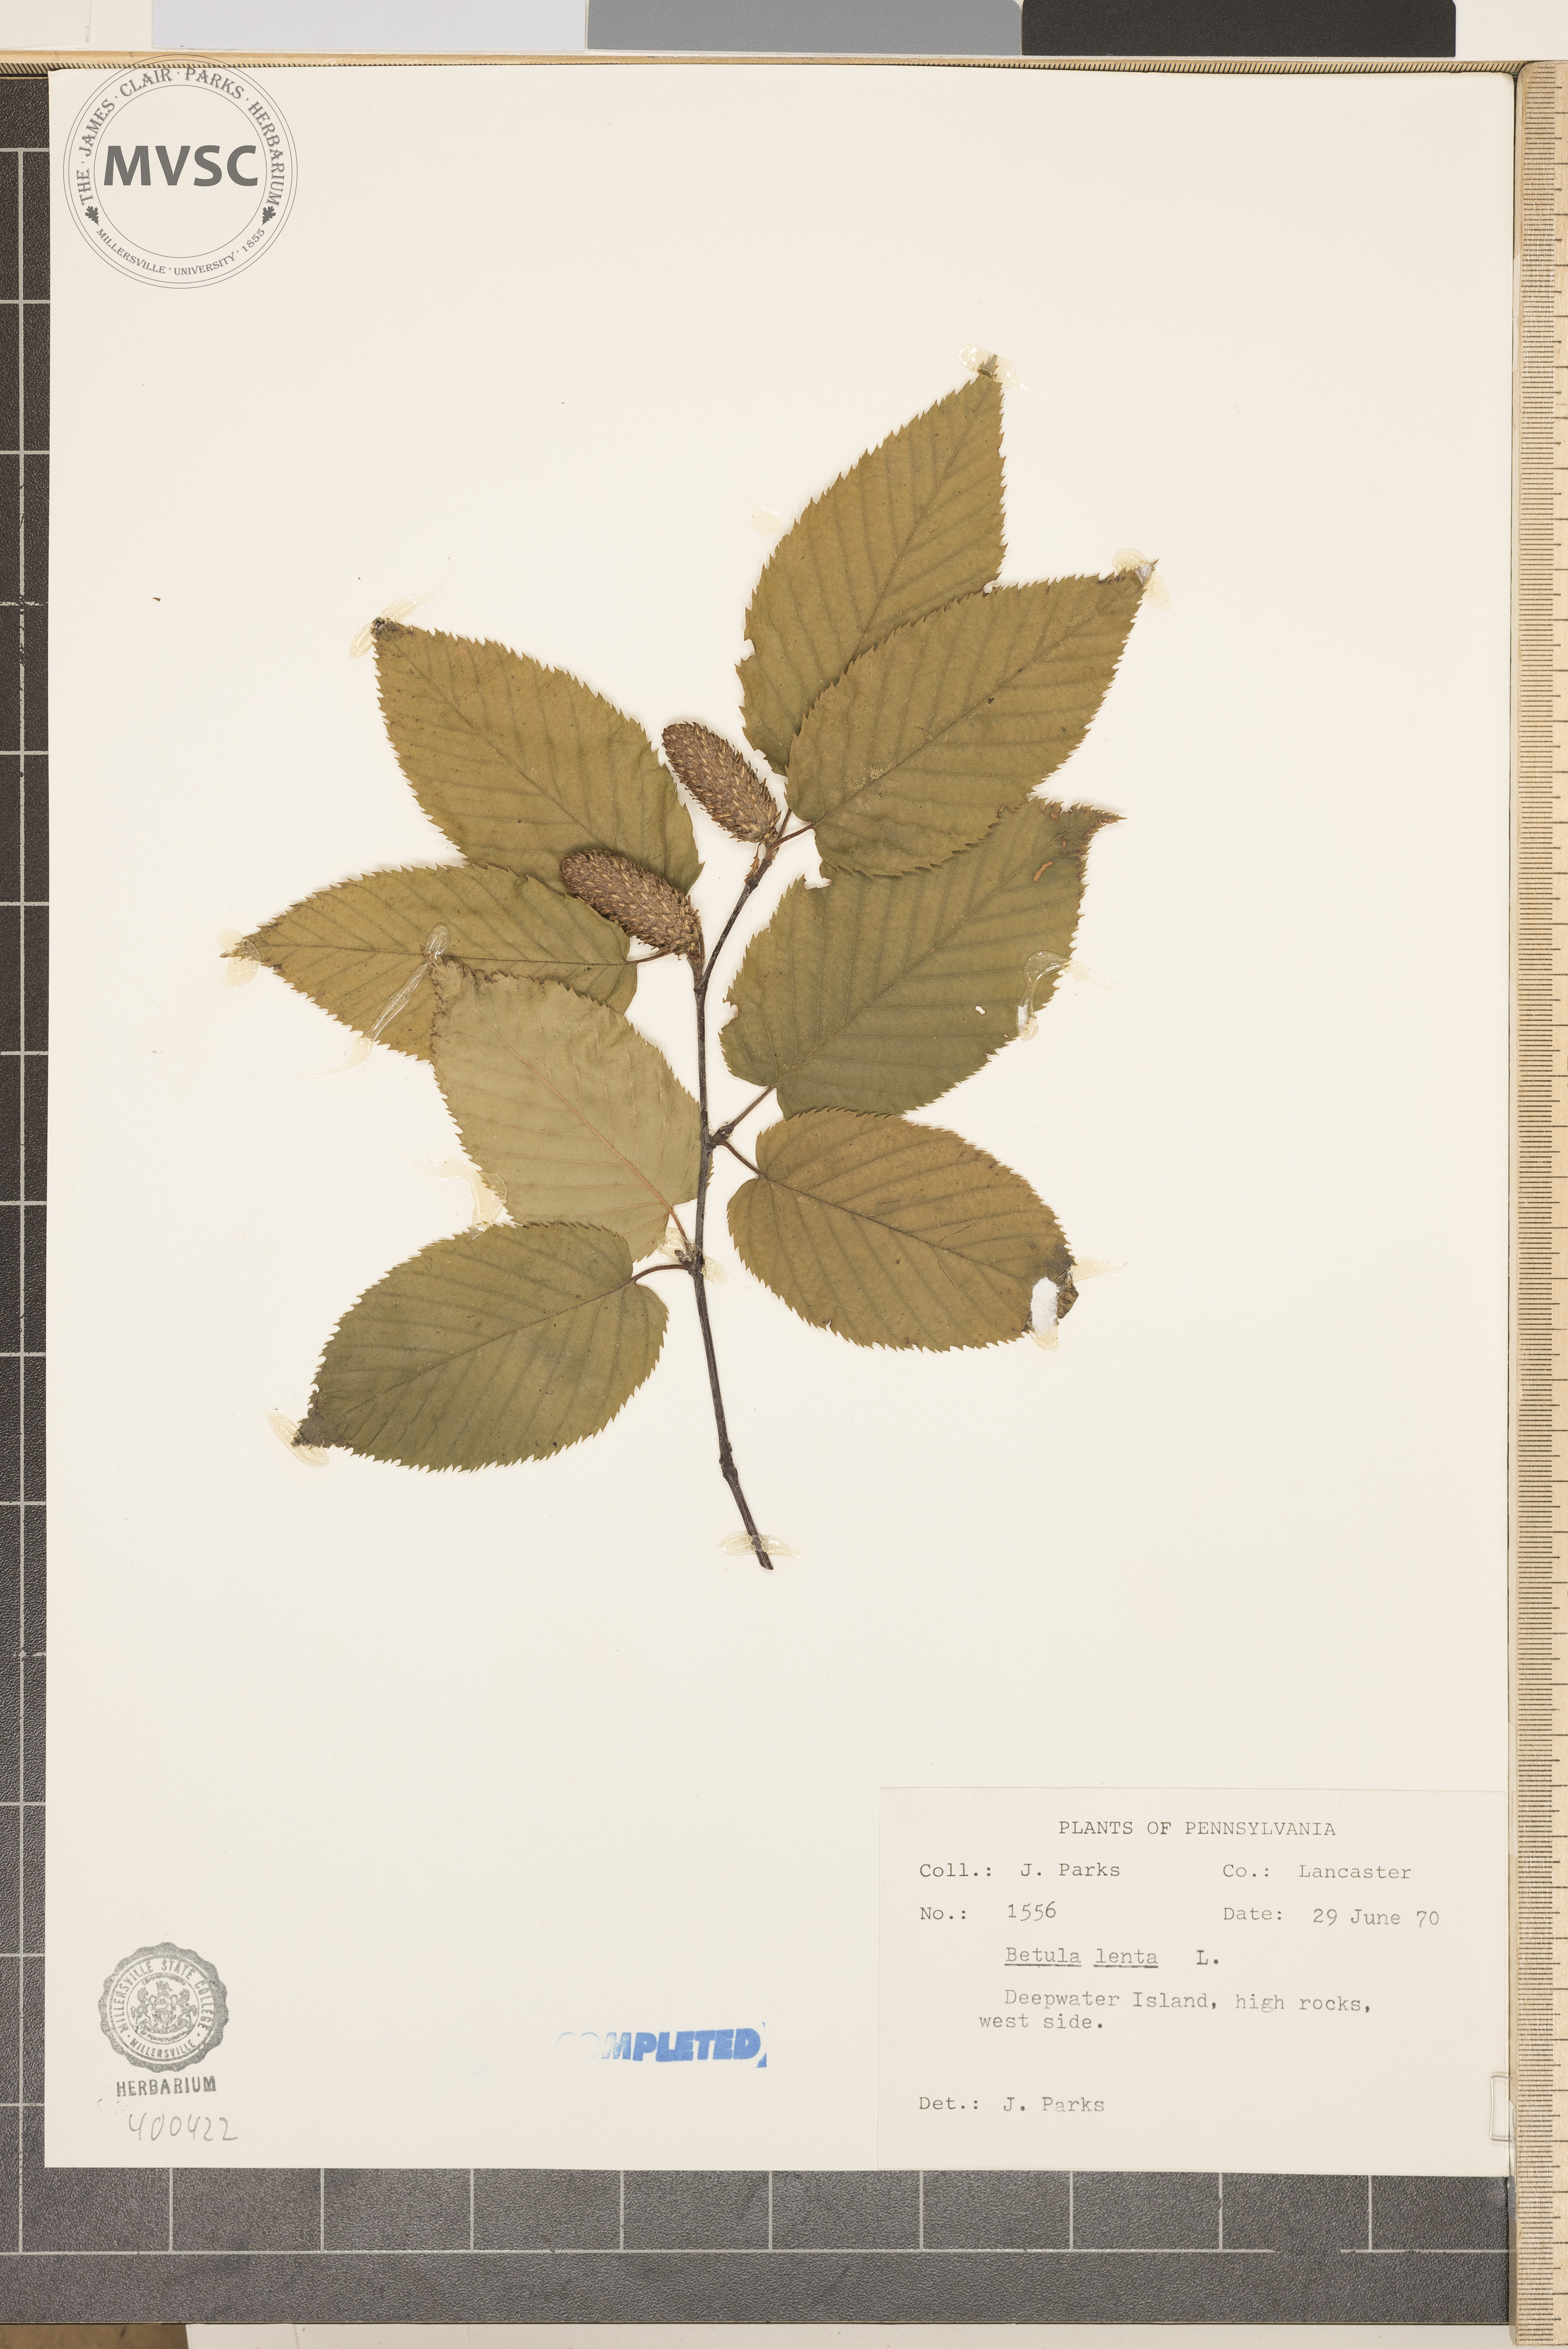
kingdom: Plantae
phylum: Tracheophyta
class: Magnoliopsida
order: Fagales
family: Betulaceae
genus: Betula
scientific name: Betula lenta
